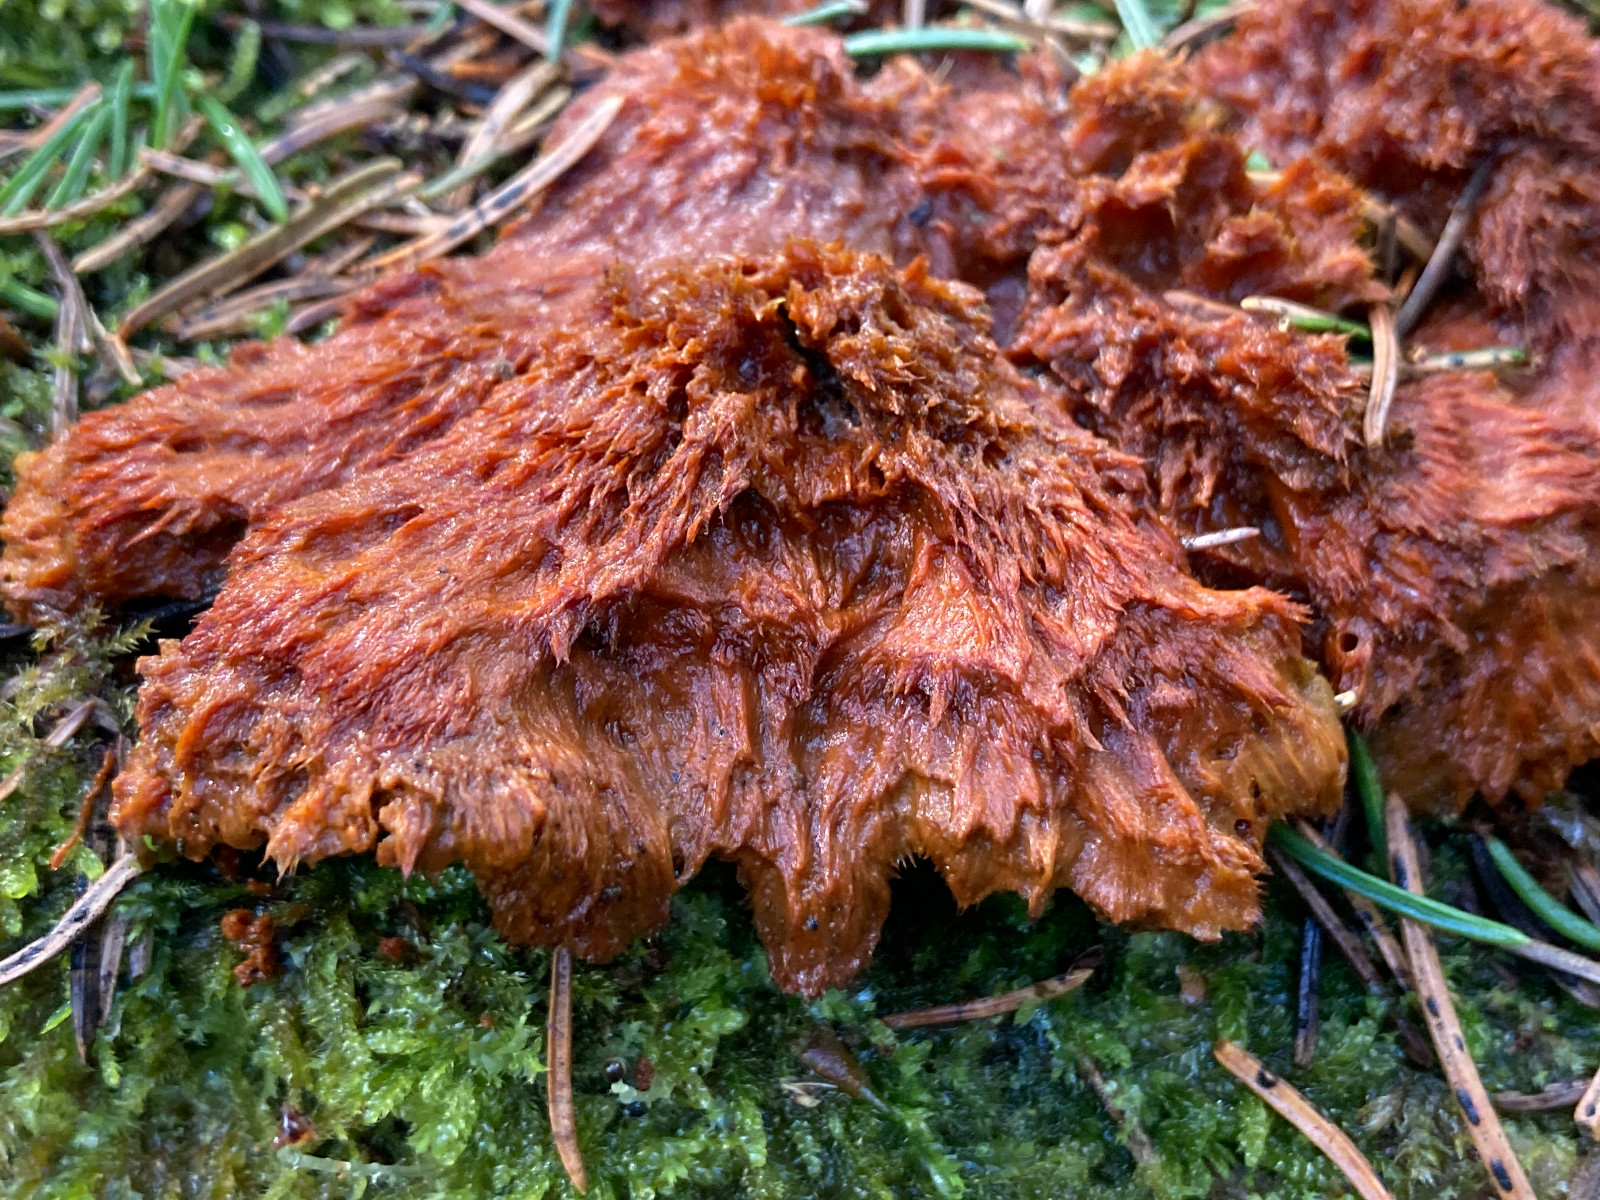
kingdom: Fungi
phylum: Basidiomycota
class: Agaricomycetes
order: Polyporales
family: Pycnoporellaceae
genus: Pycnoporellus
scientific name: Pycnoporellus fulgens
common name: flammeporesvamp
